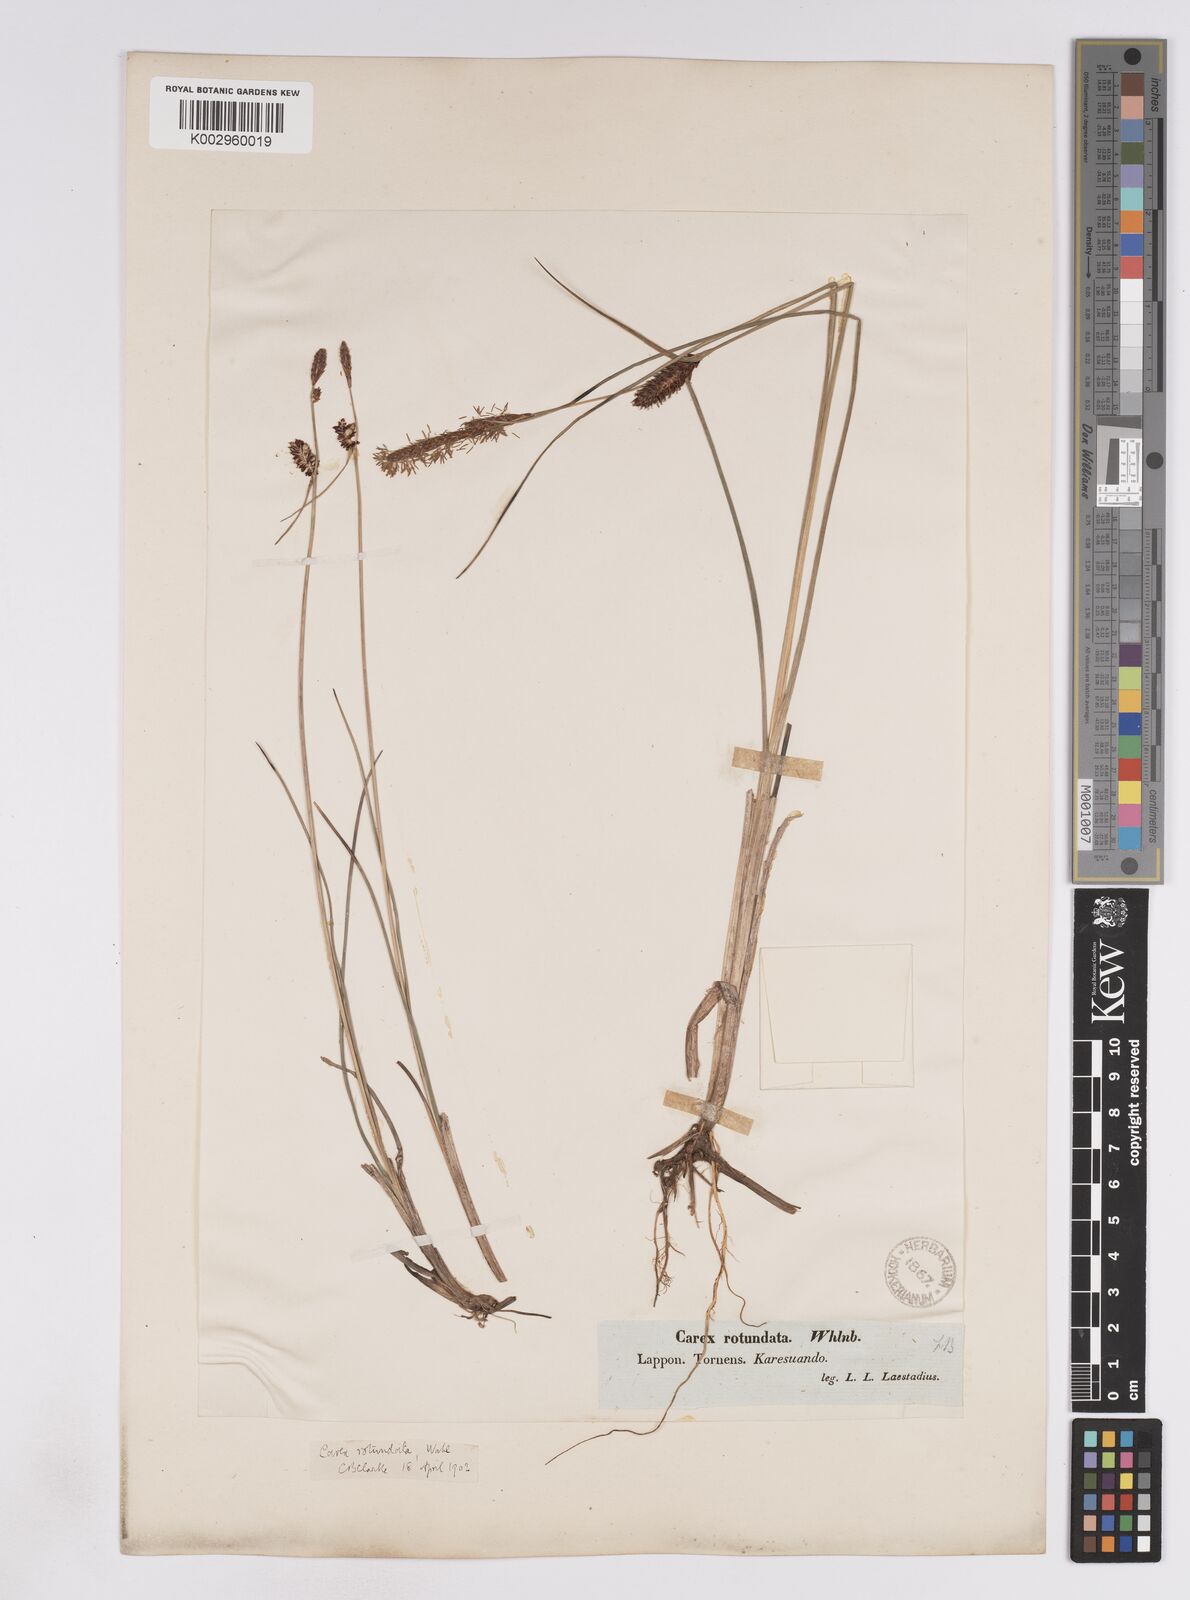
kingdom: Plantae
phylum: Tracheophyta
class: Liliopsida
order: Poales
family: Cyperaceae
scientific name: Cyperaceae
